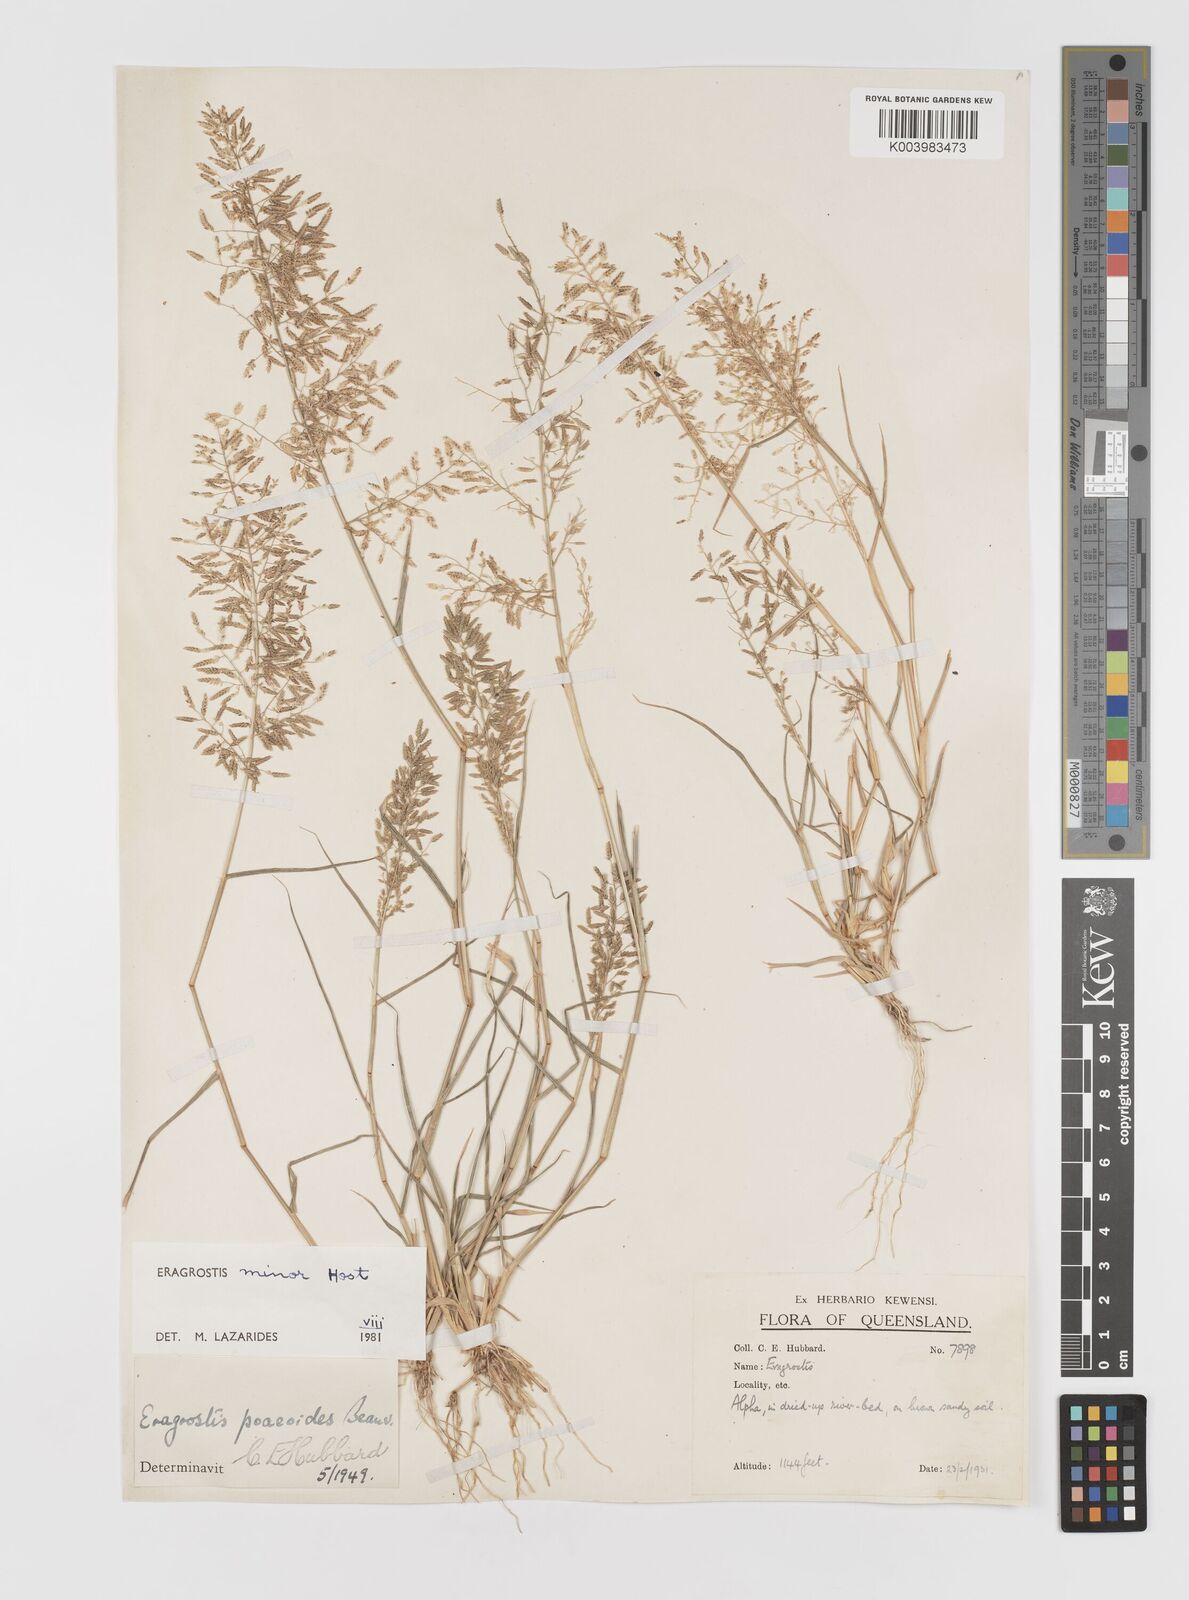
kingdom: Plantae
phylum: Tracheophyta
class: Liliopsida
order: Poales
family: Poaceae
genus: Eragrostis
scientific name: Eragrostis minor
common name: Small love-grass
